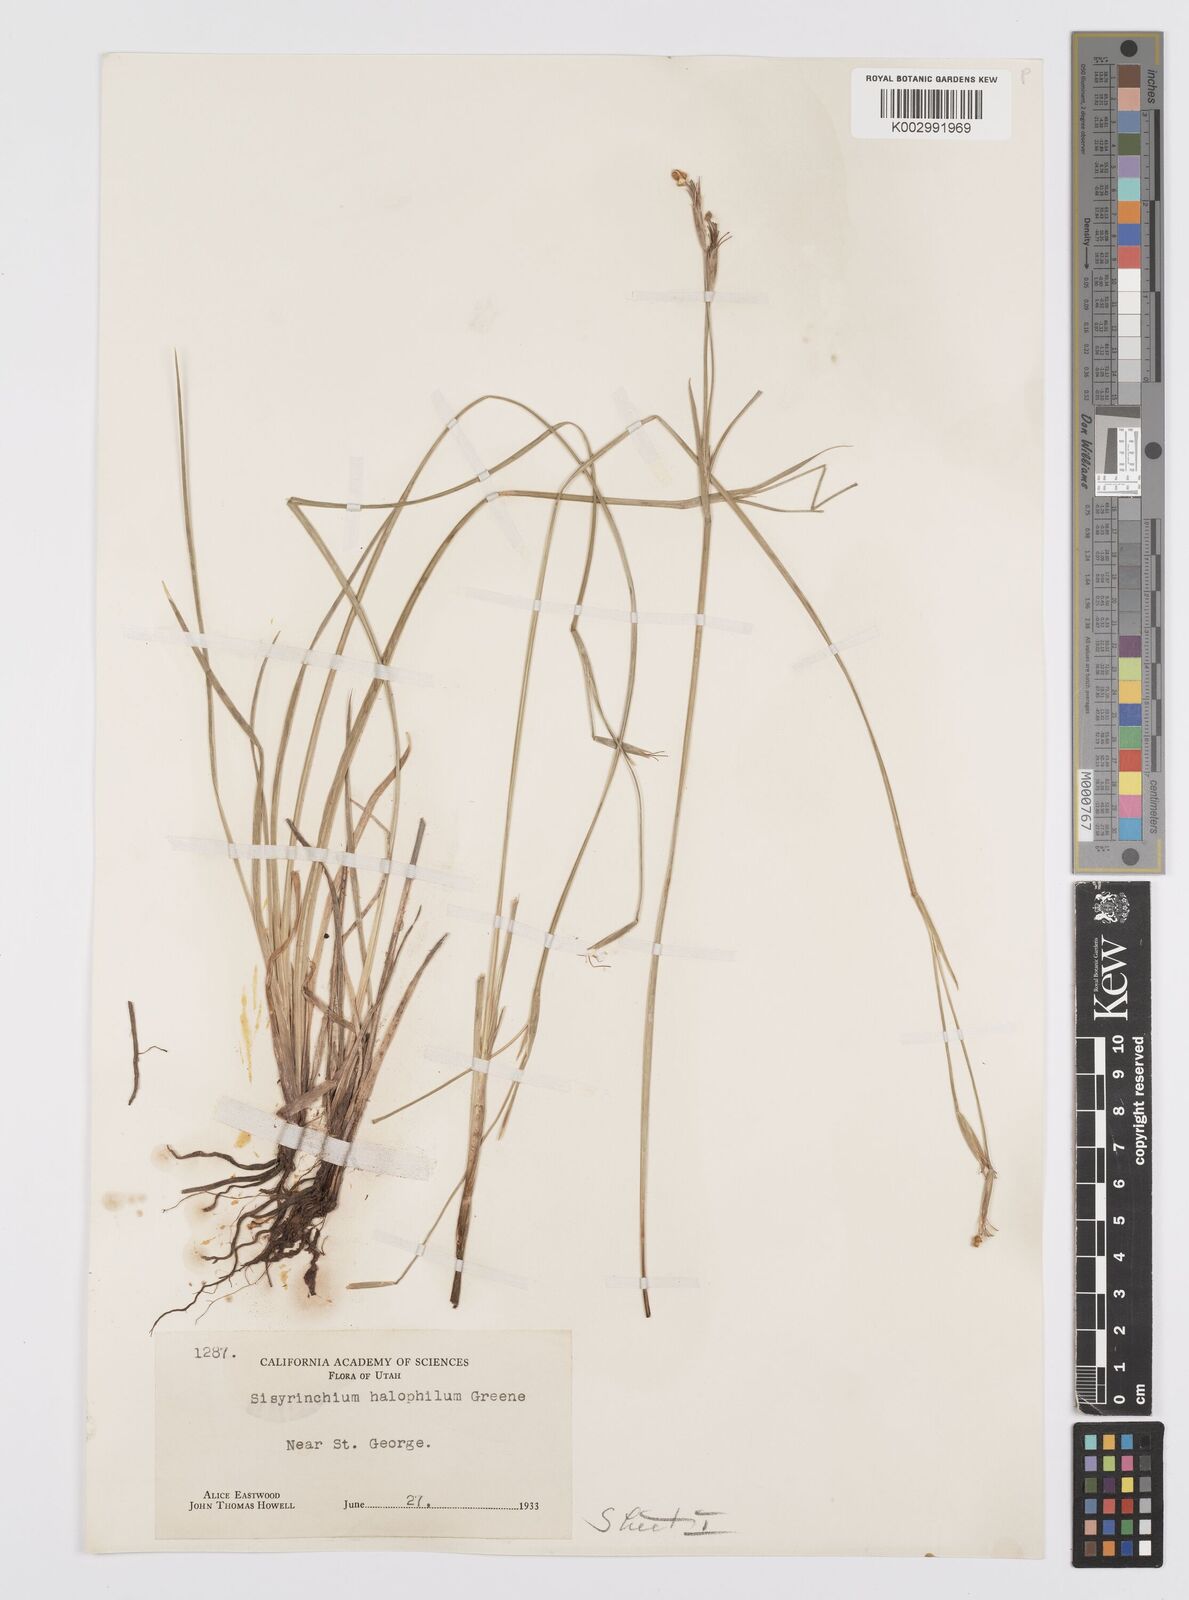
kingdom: Plantae
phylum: Tracheophyta
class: Liliopsida
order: Asparagales
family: Iridaceae
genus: Sisyrinchium
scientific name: Sisyrinchium halophilum
